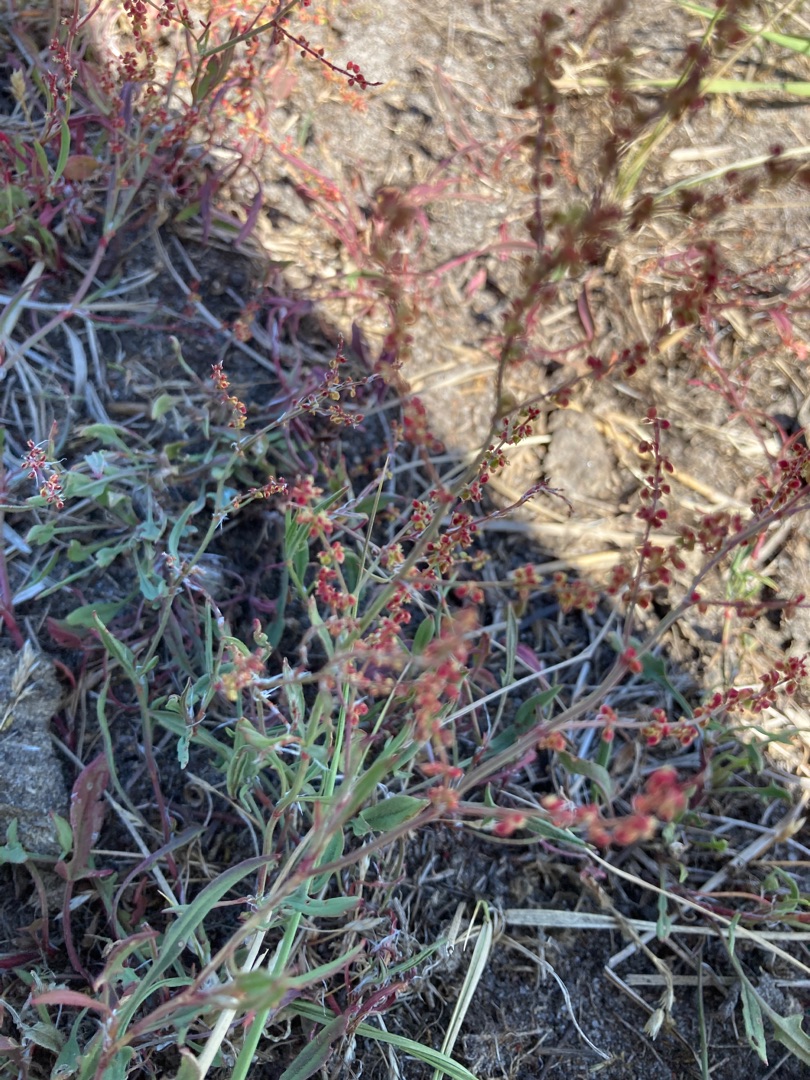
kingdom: Plantae
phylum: Tracheophyta
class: Magnoliopsida
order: Caryophyllales
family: Polygonaceae
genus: Rumex
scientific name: Rumex acetosella
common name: Rødknæ
